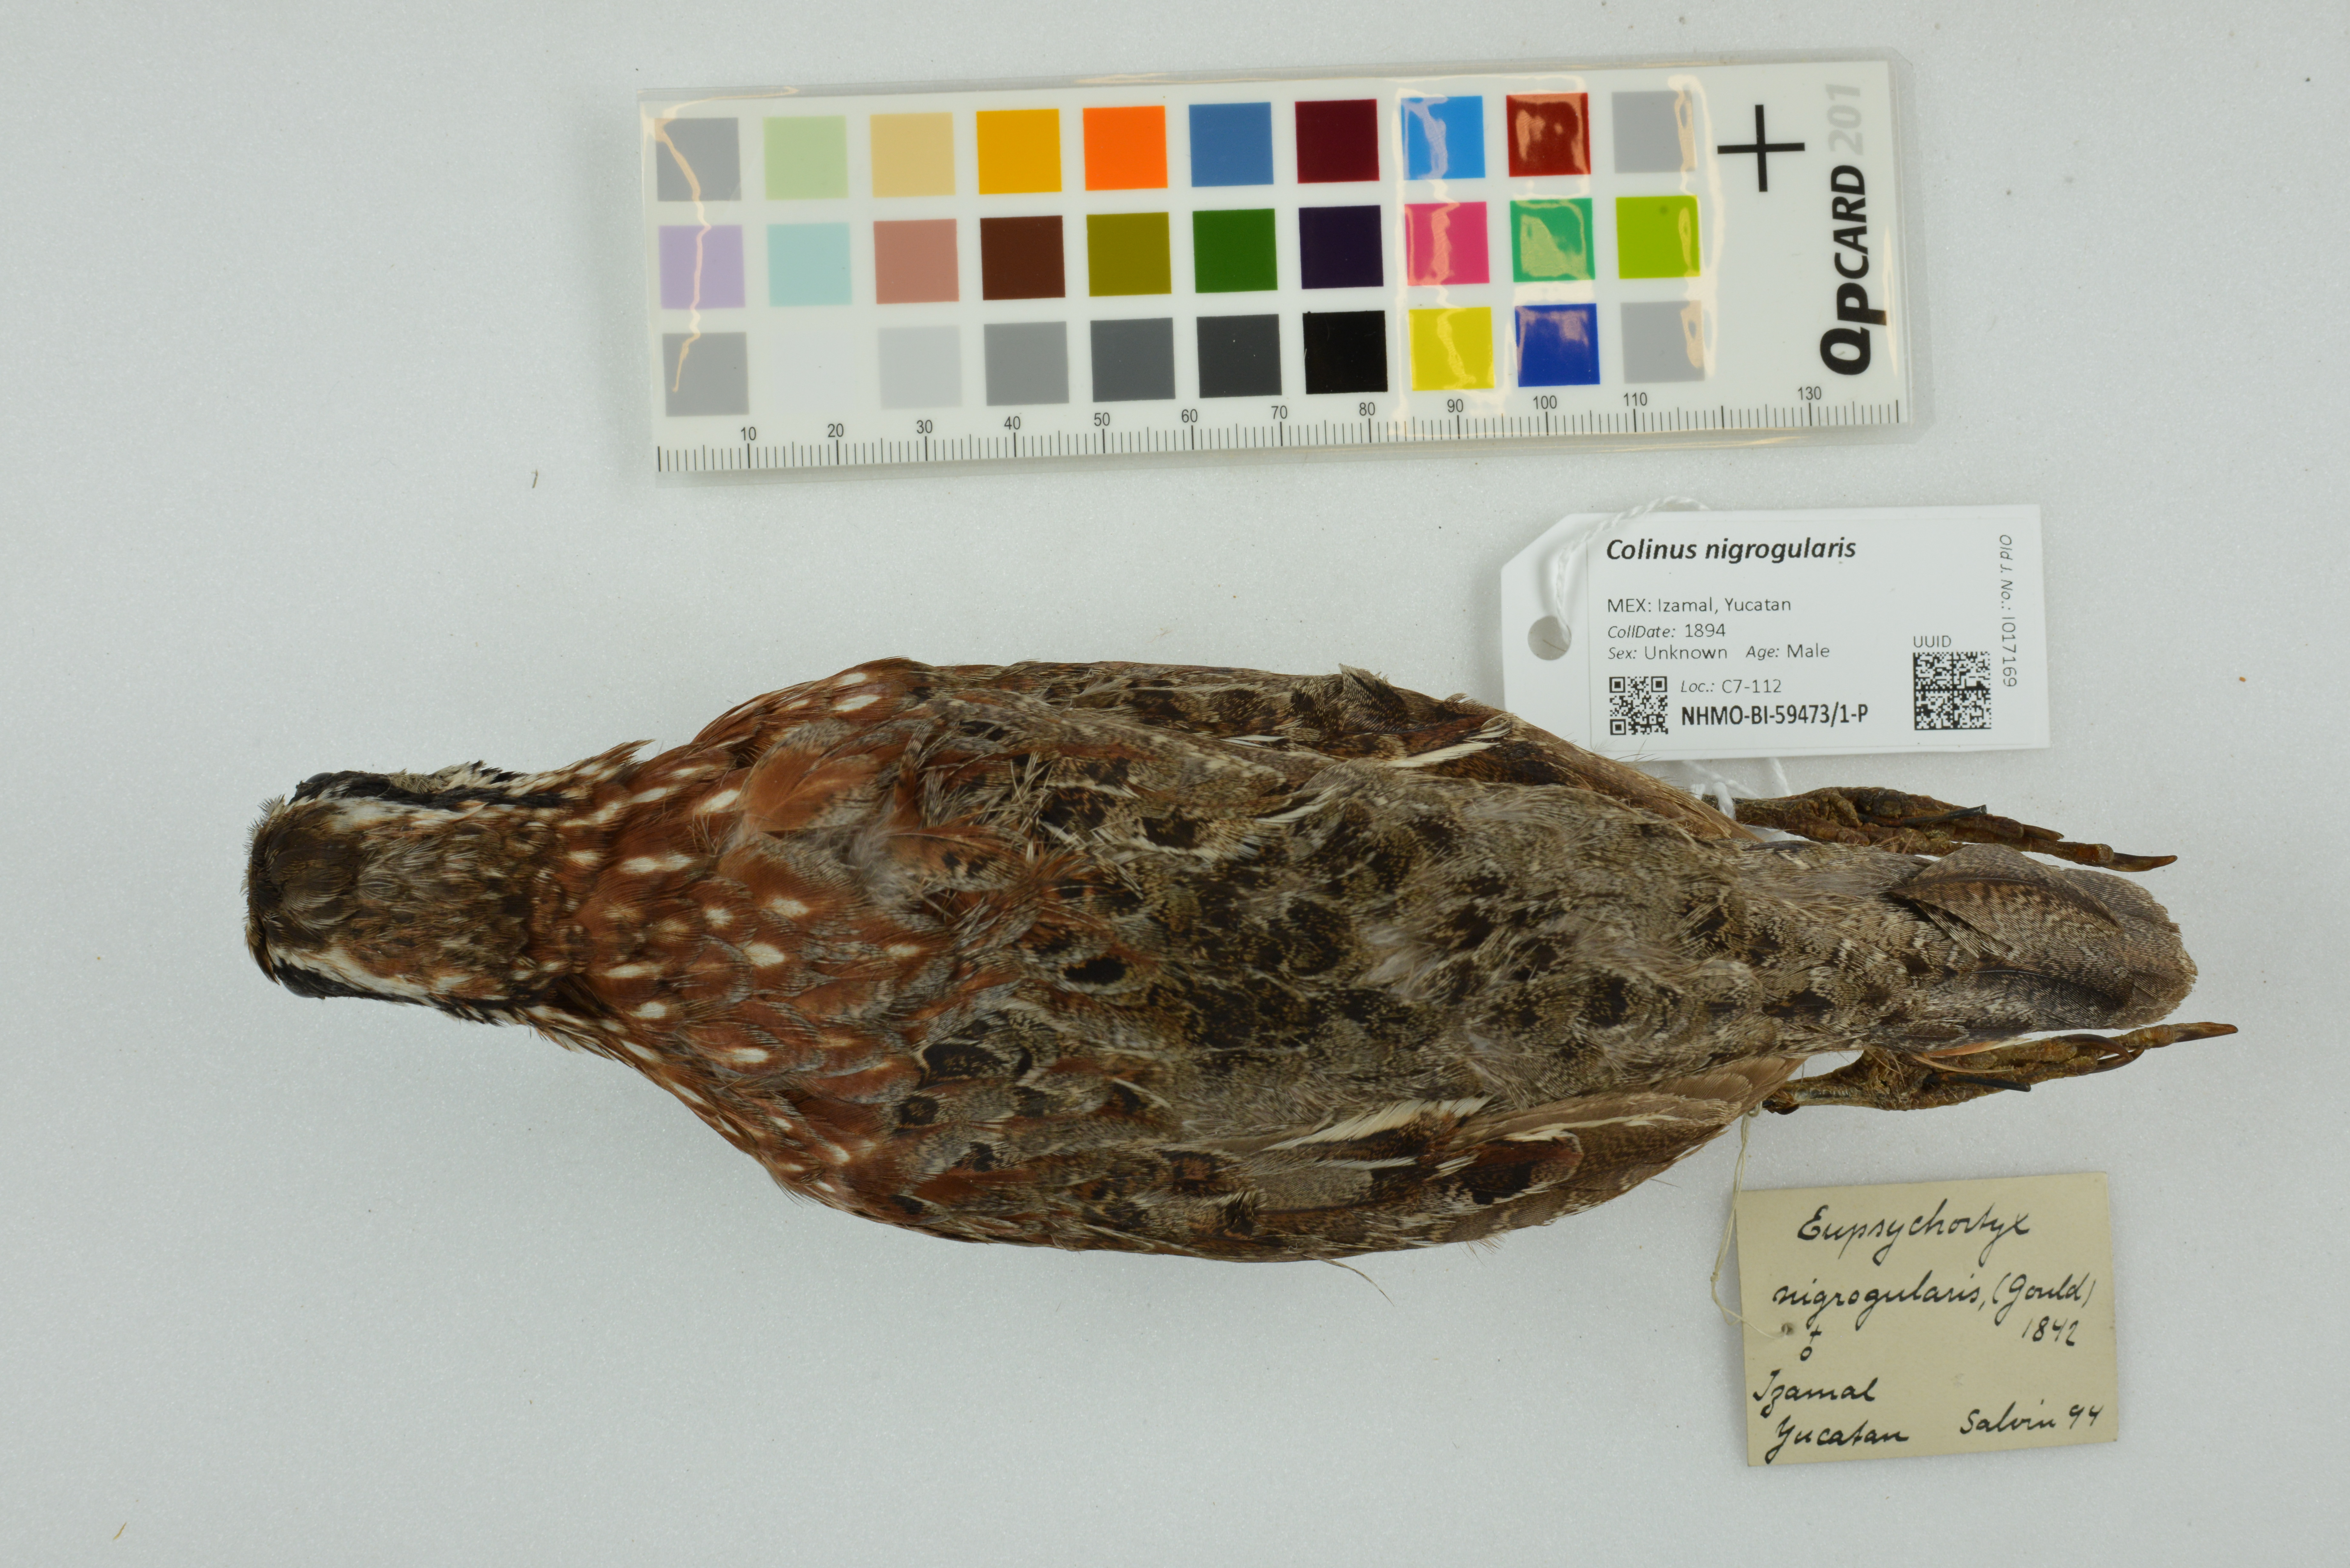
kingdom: Animalia
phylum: Chordata
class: Aves
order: Galliformes
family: Odontophoridae
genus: Colinus
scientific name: Colinus nigrogularis
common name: Yucatan bobwhite
